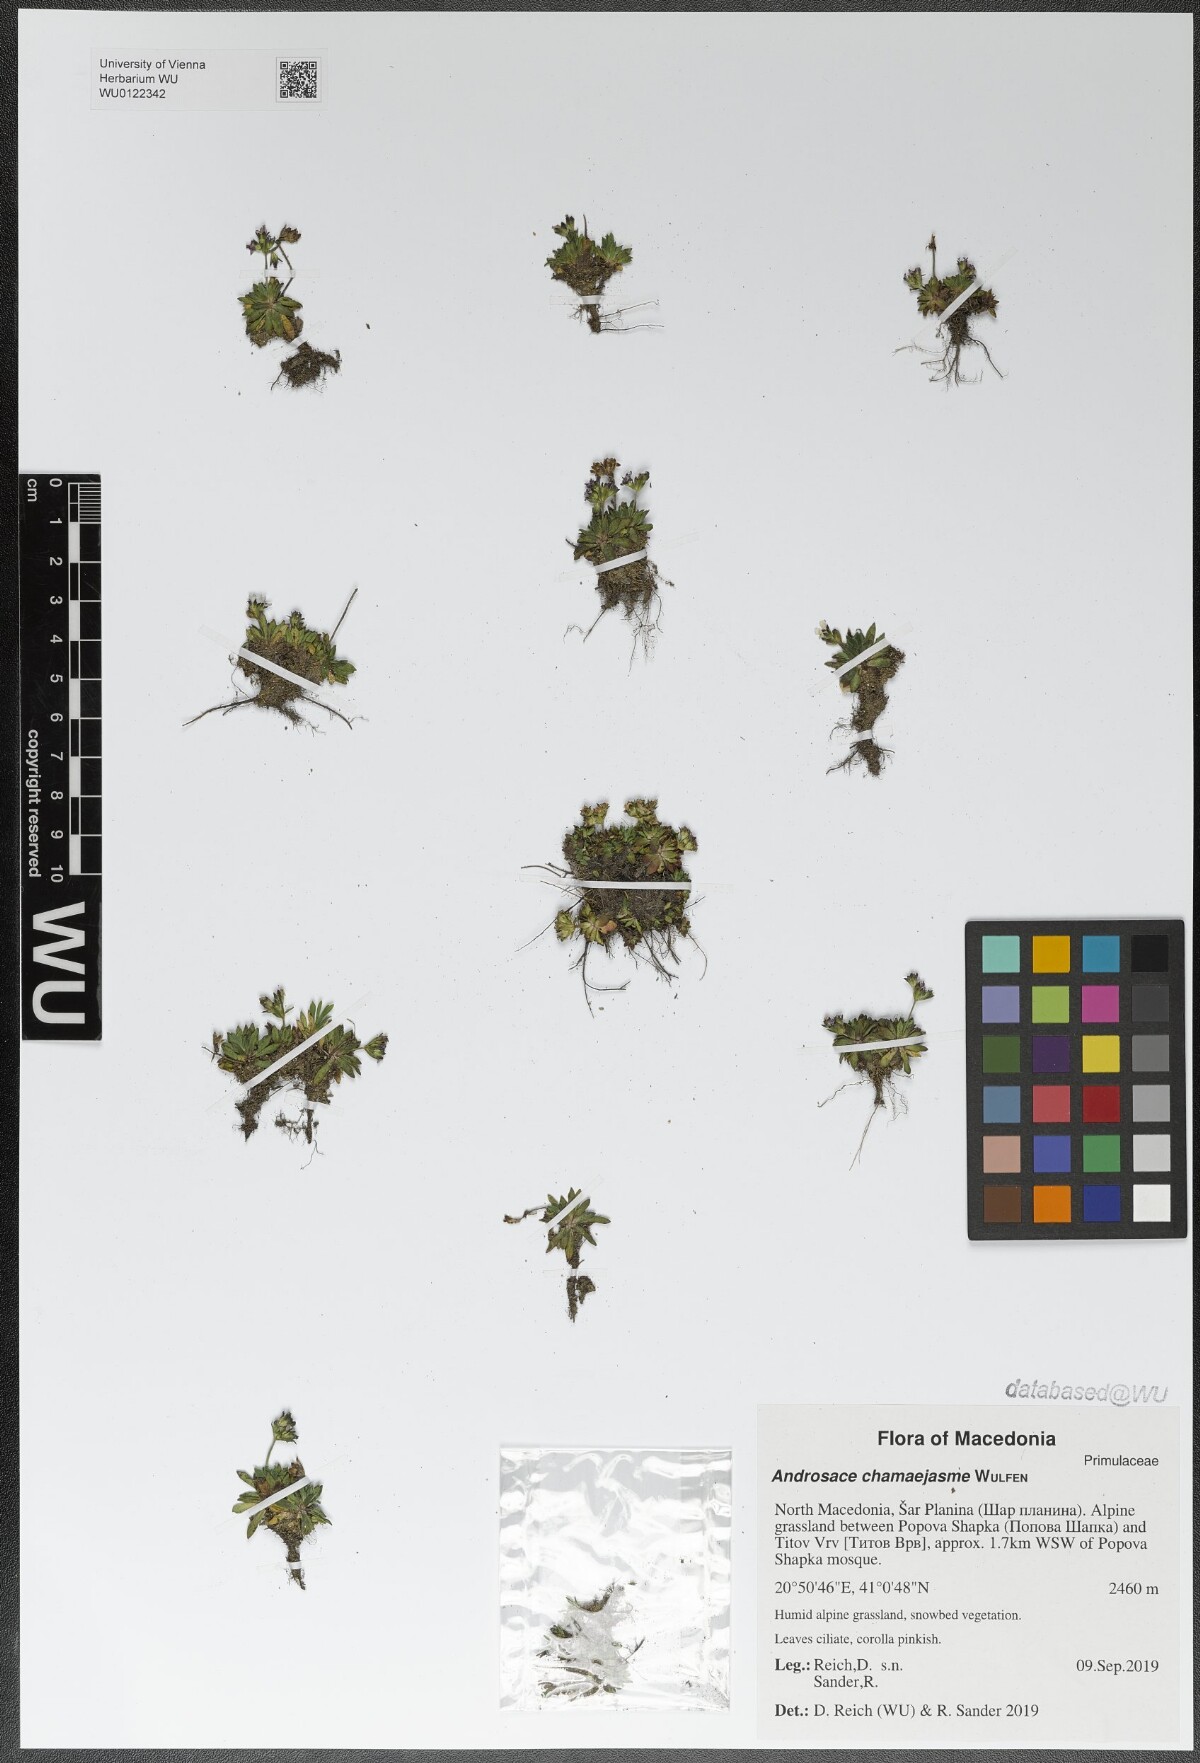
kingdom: Plantae
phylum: Tracheophyta
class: Magnoliopsida
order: Ericales
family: Primulaceae
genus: Androsace
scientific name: Androsace chamaejasme
